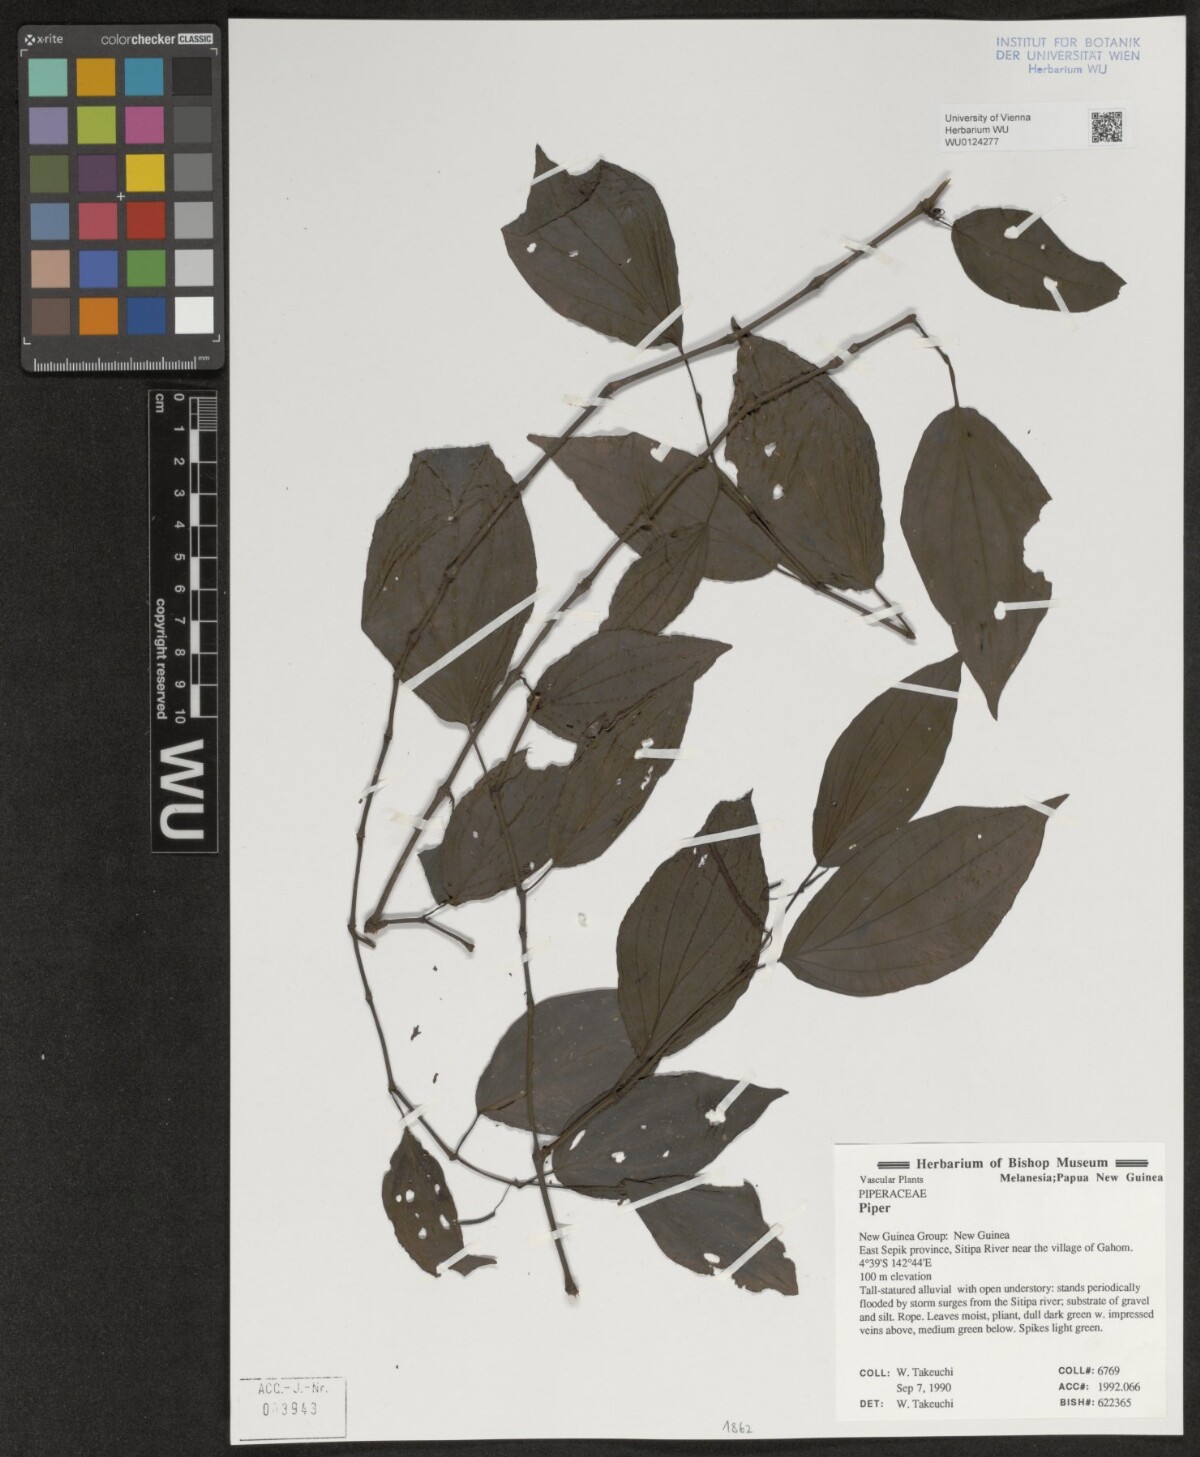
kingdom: Plantae
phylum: Tracheophyta
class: Magnoliopsida
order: Piperales
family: Piperaceae
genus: Piper
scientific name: Piper
